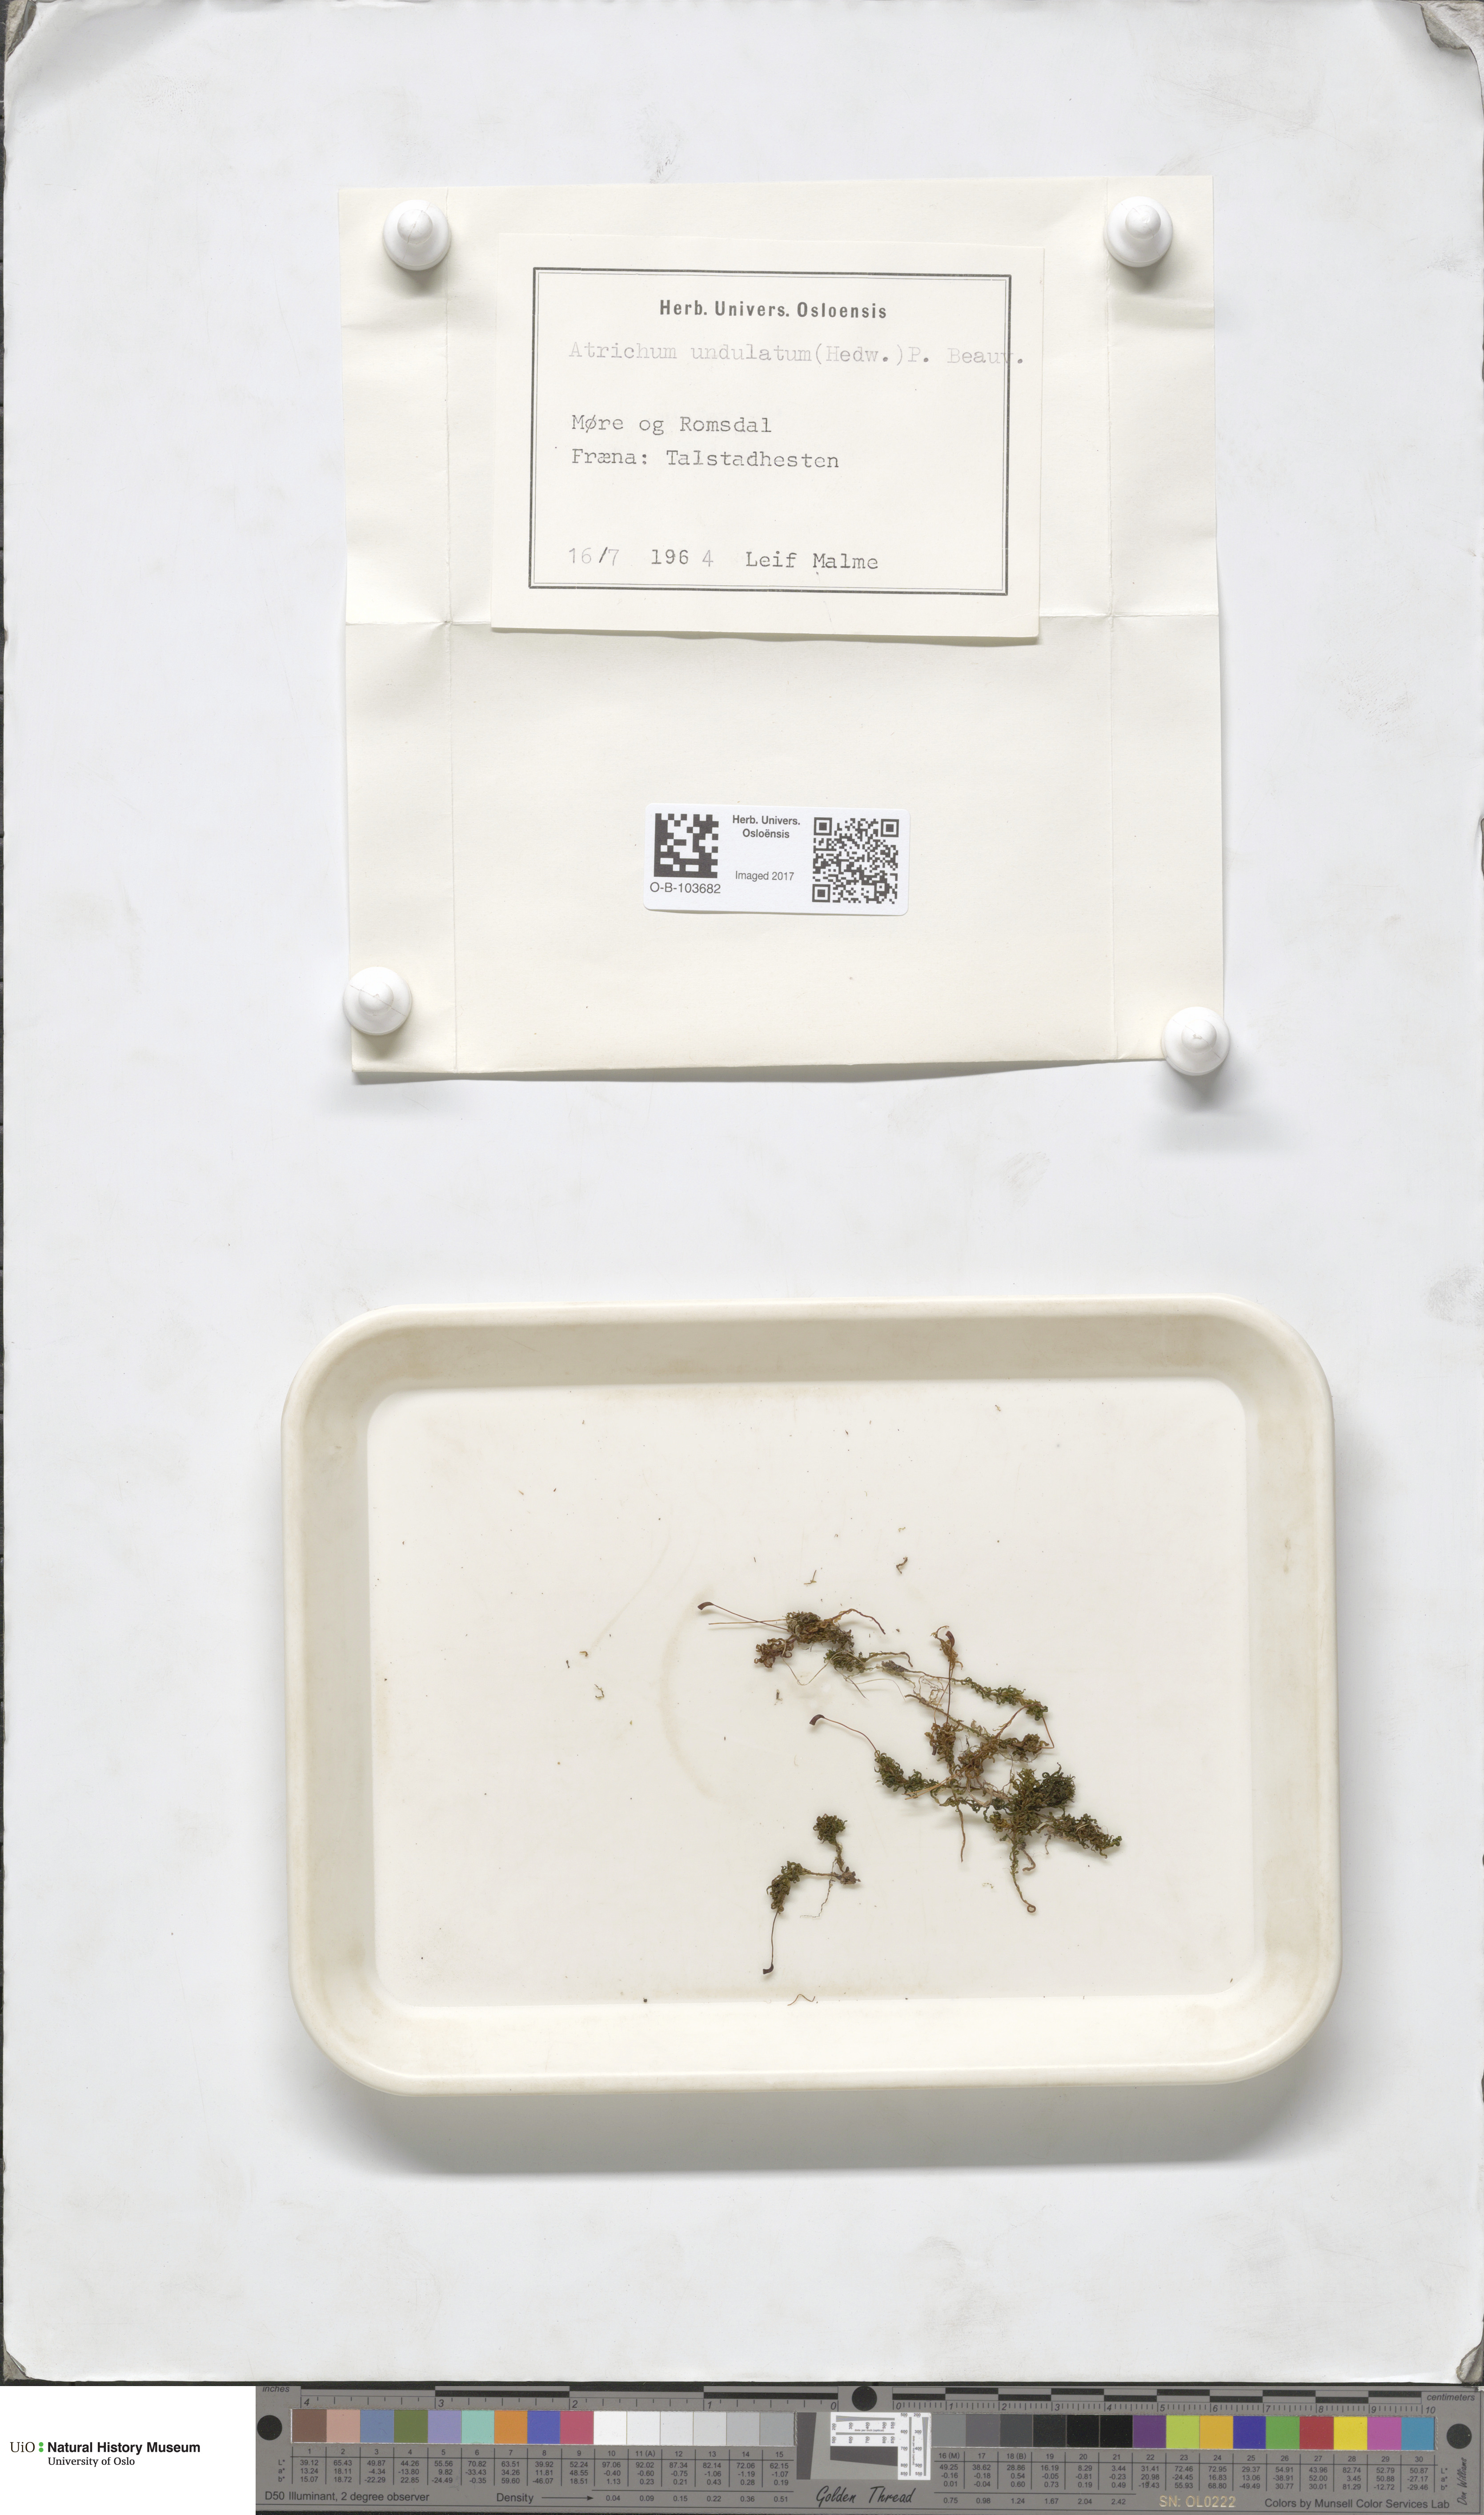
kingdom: Plantae
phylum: Bryophyta
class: Polytrichopsida
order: Polytrichales
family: Polytrichaceae
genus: Atrichum
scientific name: Atrichum undulatum
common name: Common smoothcap
